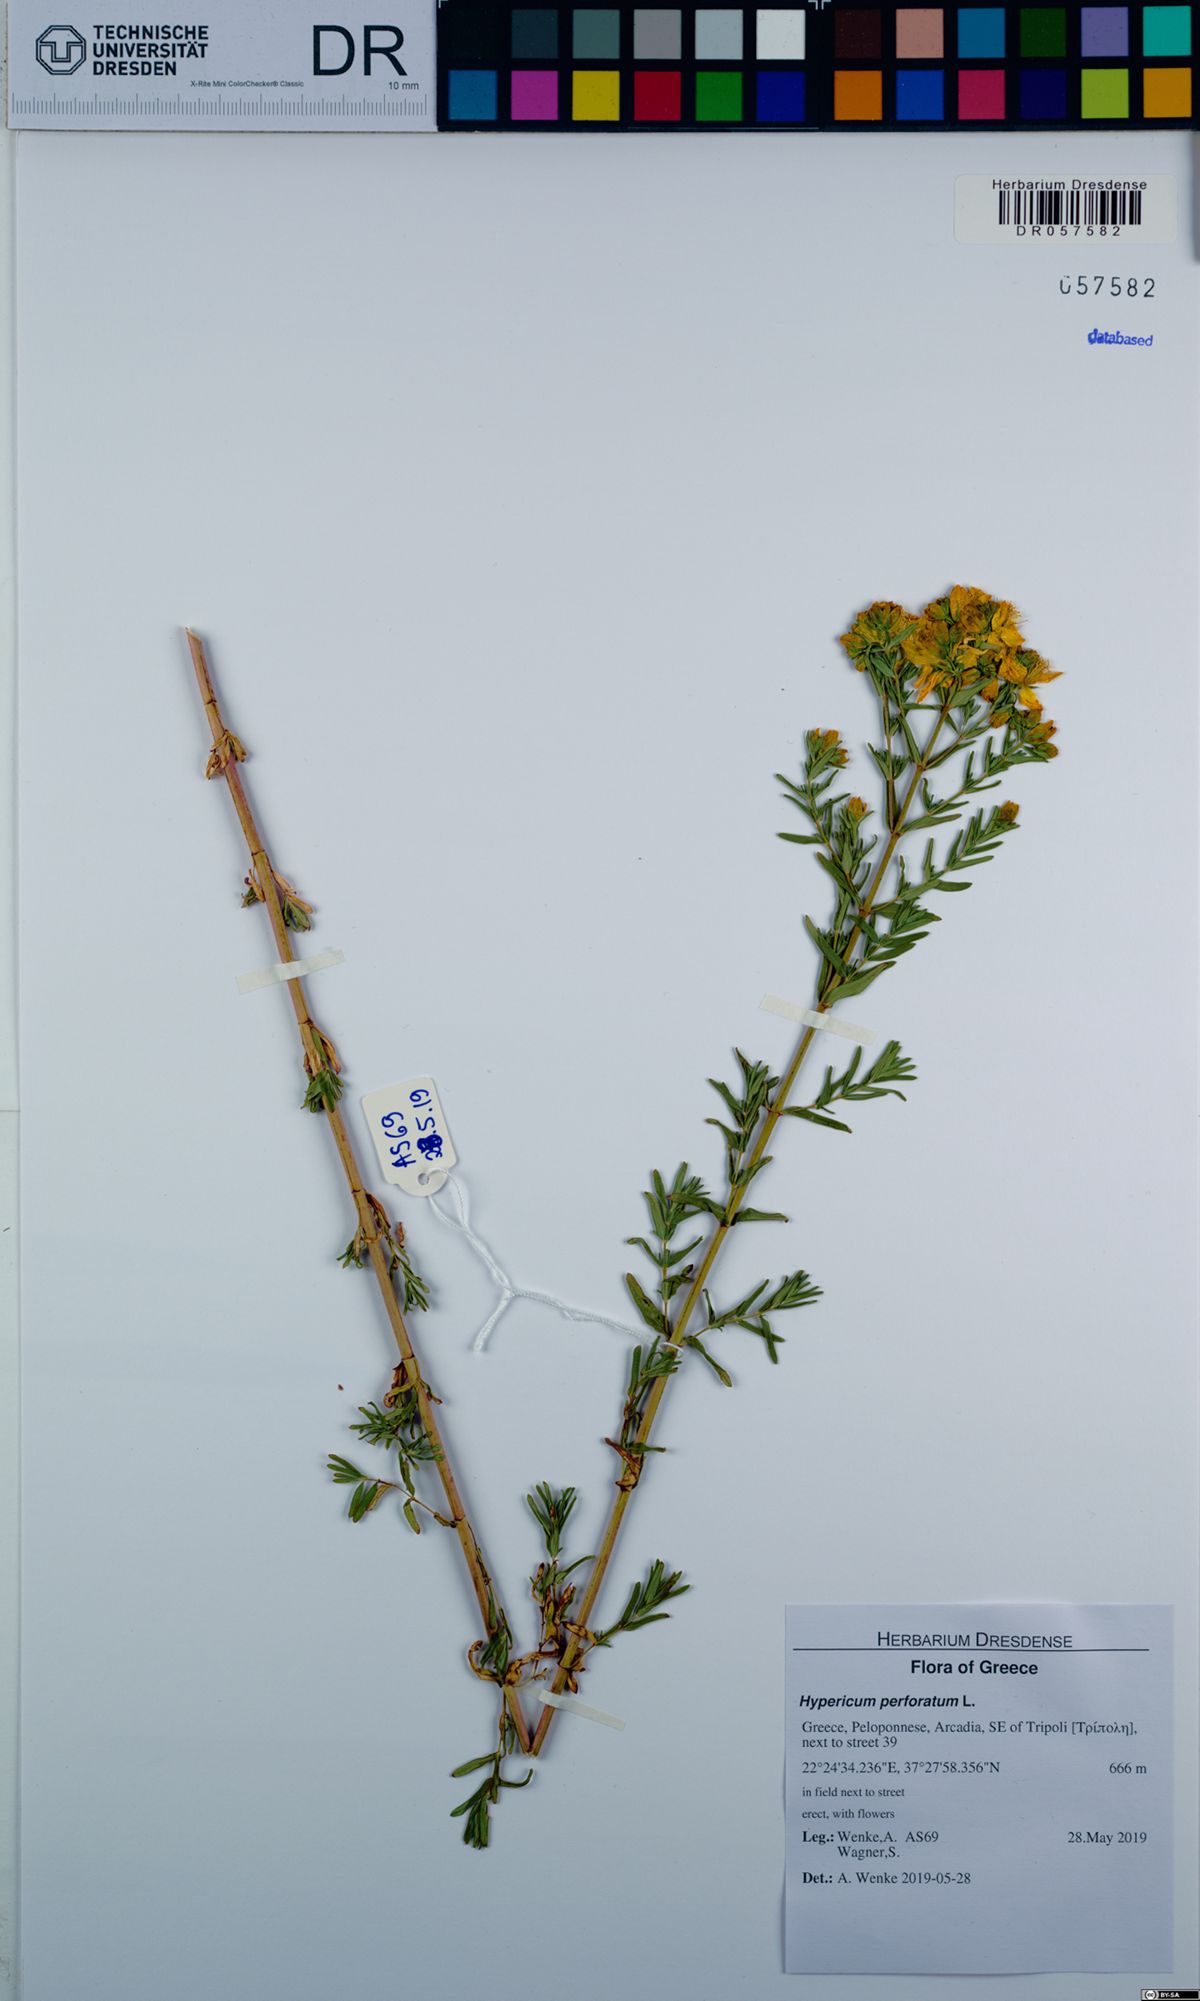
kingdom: Plantae
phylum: Tracheophyta
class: Magnoliopsida
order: Malpighiales
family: Hypericaceae
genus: Hypericum
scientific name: Hypericum perforatum
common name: Common st. johnswort
